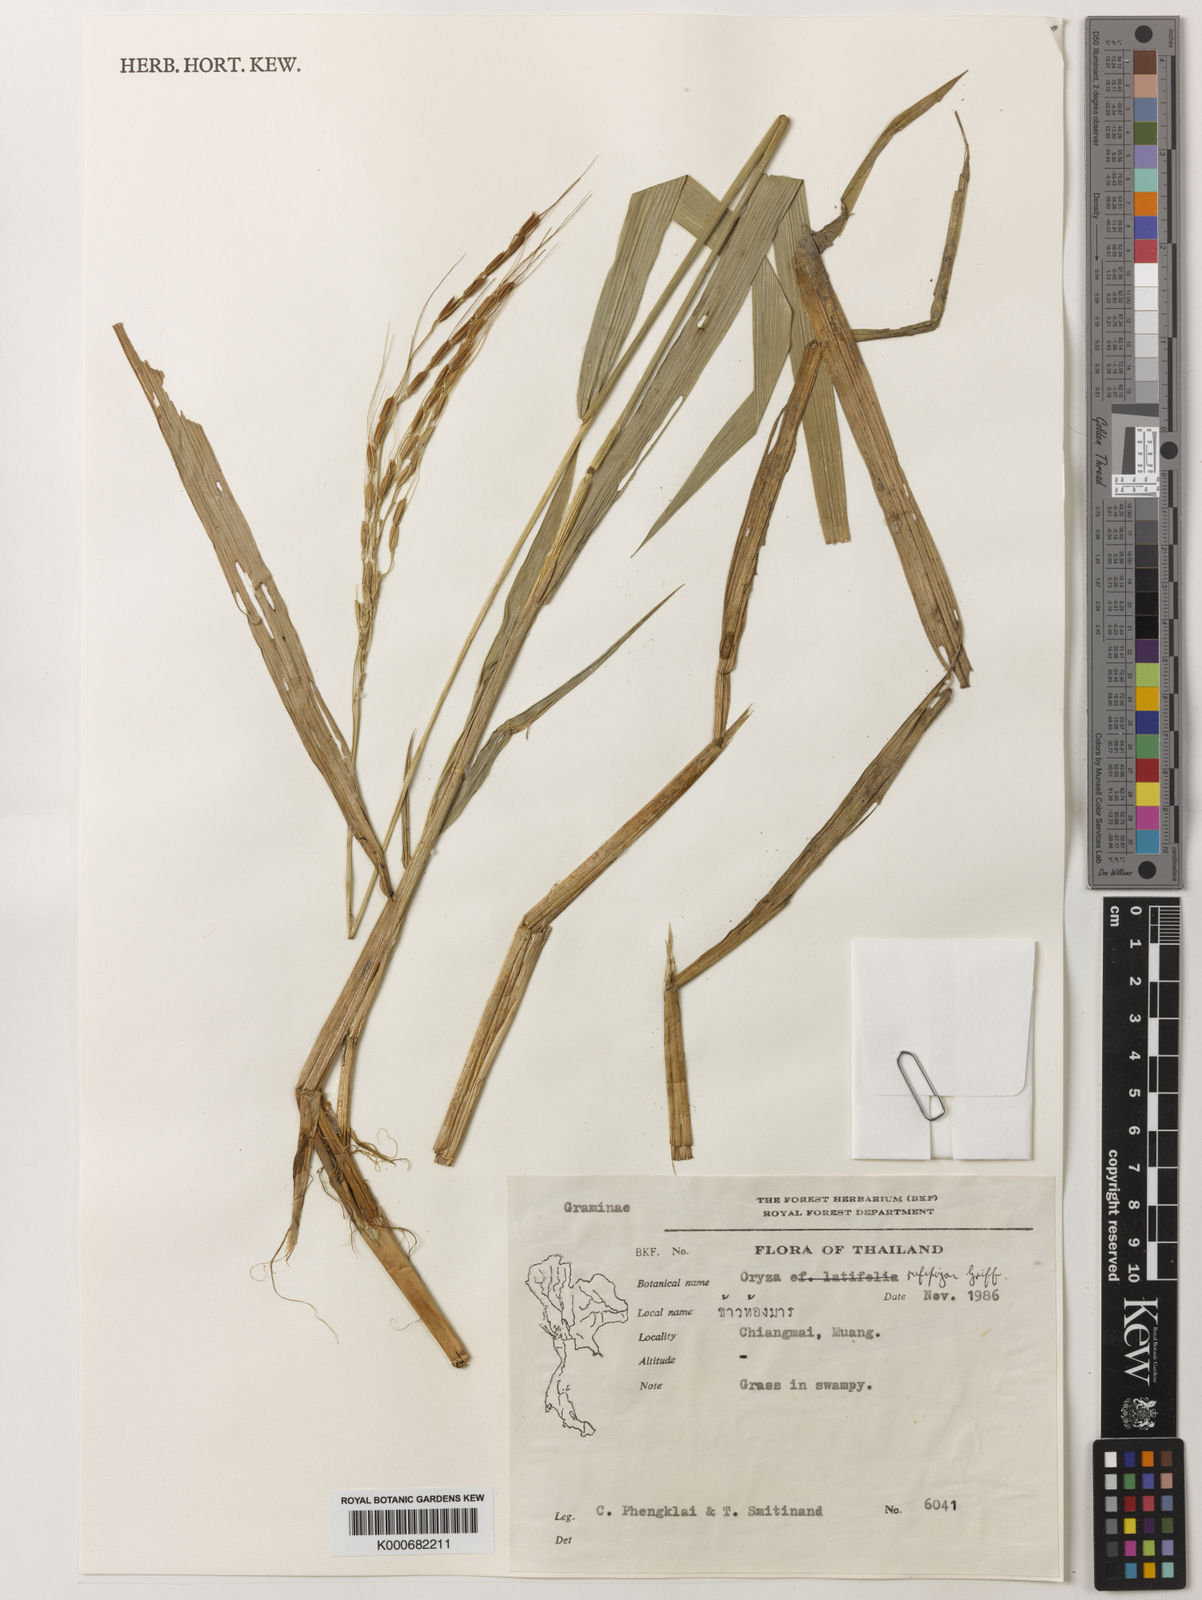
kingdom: Plantae
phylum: Tracheophyta
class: Liliopsida
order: Poales
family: Poaceae
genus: Oryza
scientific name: Oryza rufipogon
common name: Red rice
